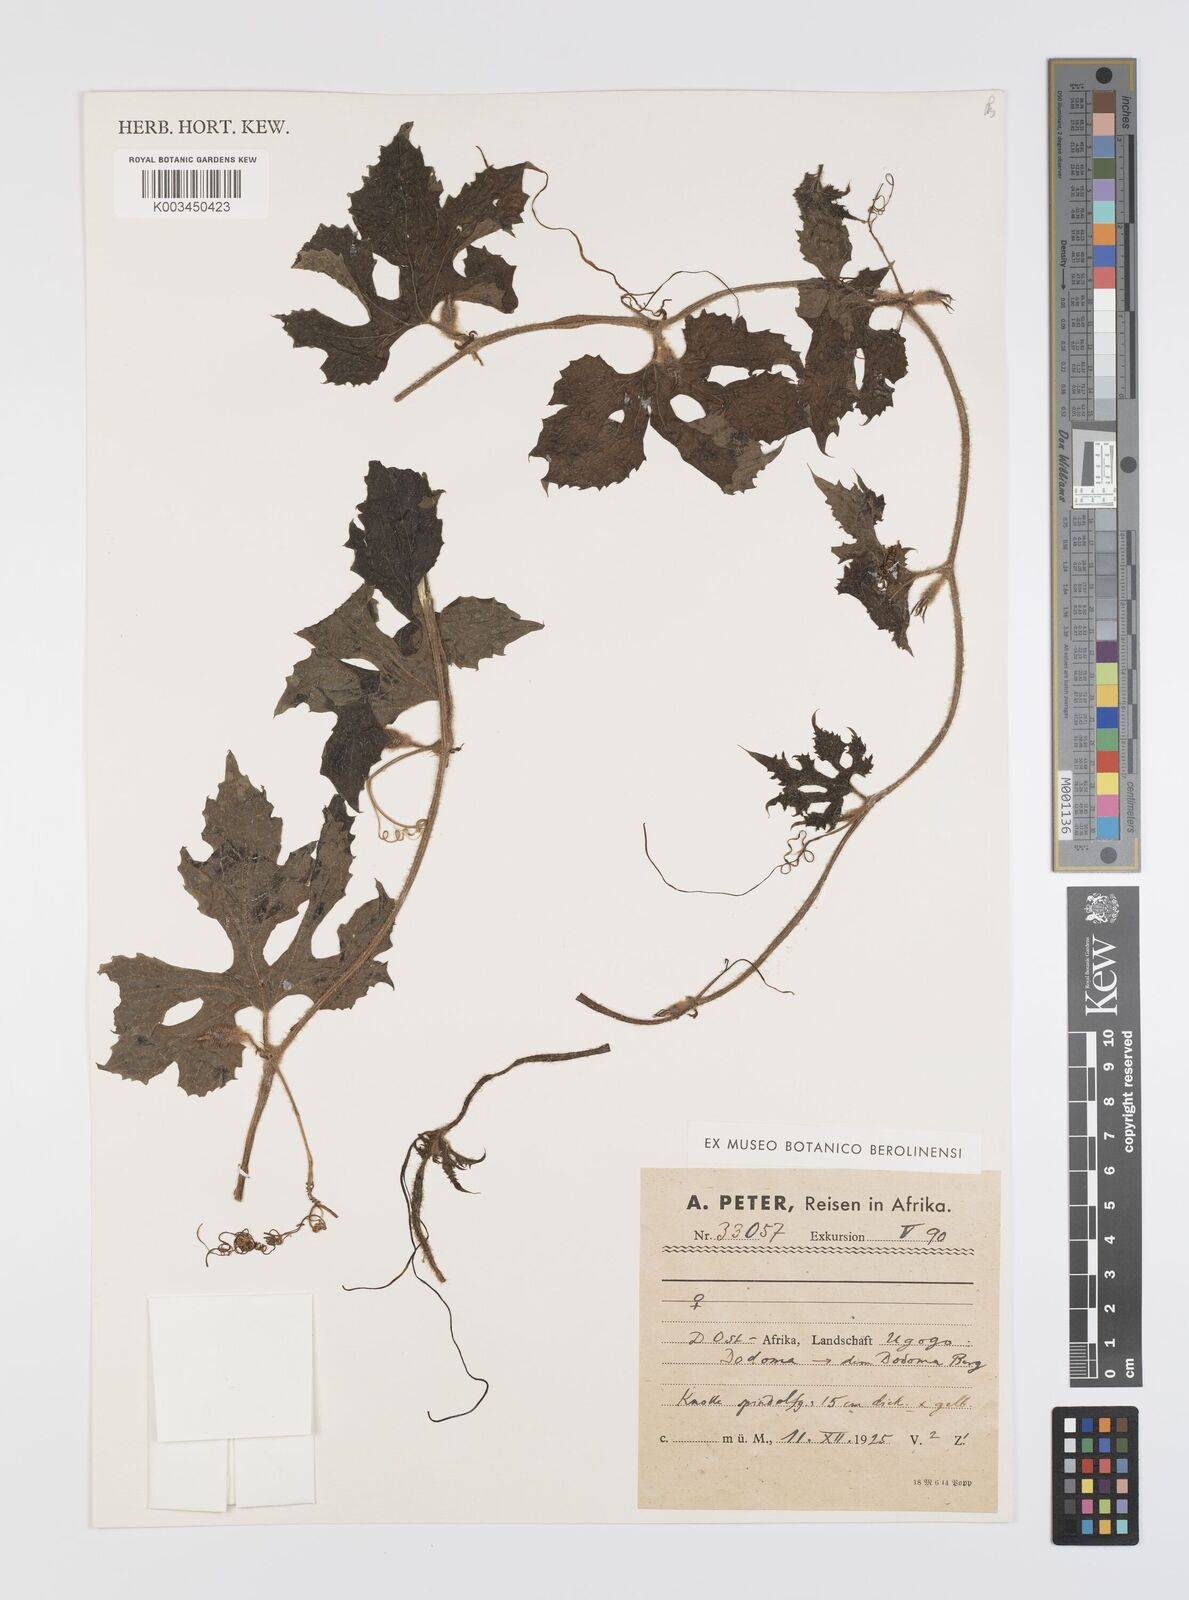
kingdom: Plantae
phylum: Tracheophyta
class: Magnoliopsida
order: Cucurbitales
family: Cucurbitaceae
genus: Peponium
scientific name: Peponium vogelii
